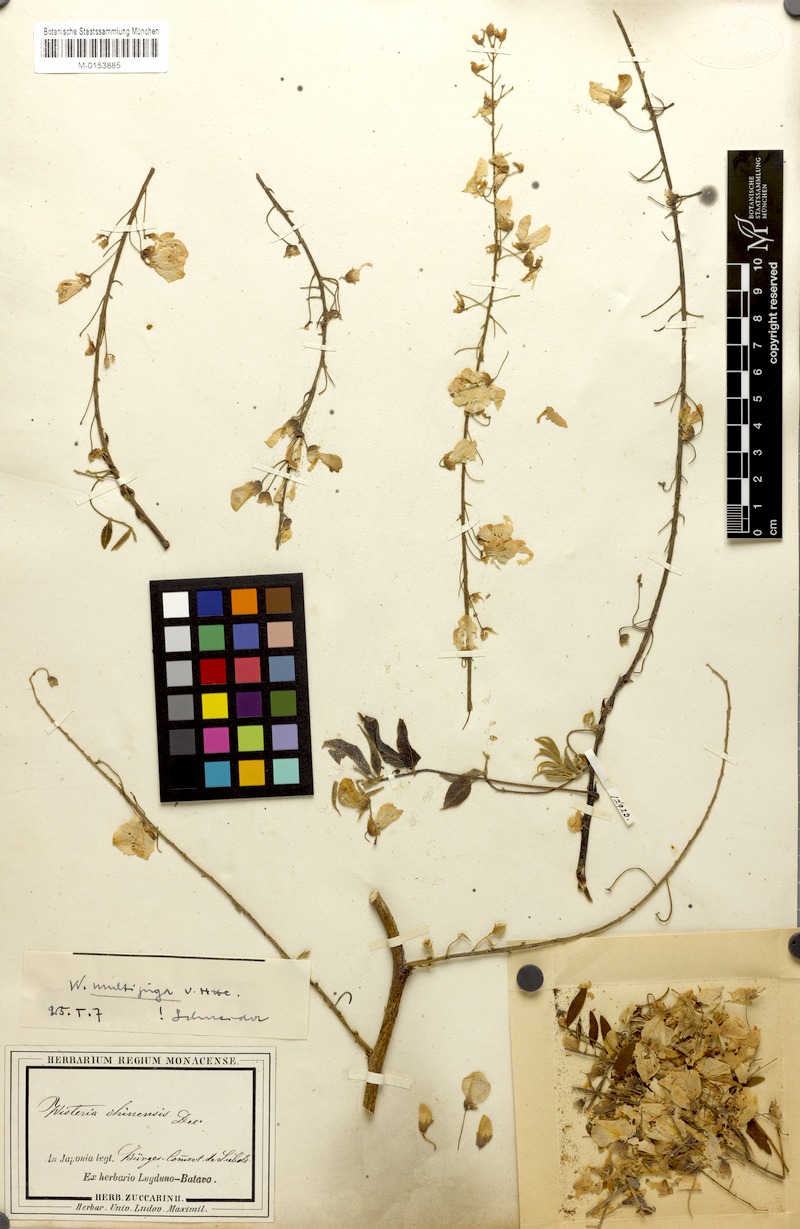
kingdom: Plantae
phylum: Tracheophyta
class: Magnoliopsida
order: Fabales
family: Fabaceae
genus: Wisteria
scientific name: Wisteria floribunda
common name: Japanese wisteria
